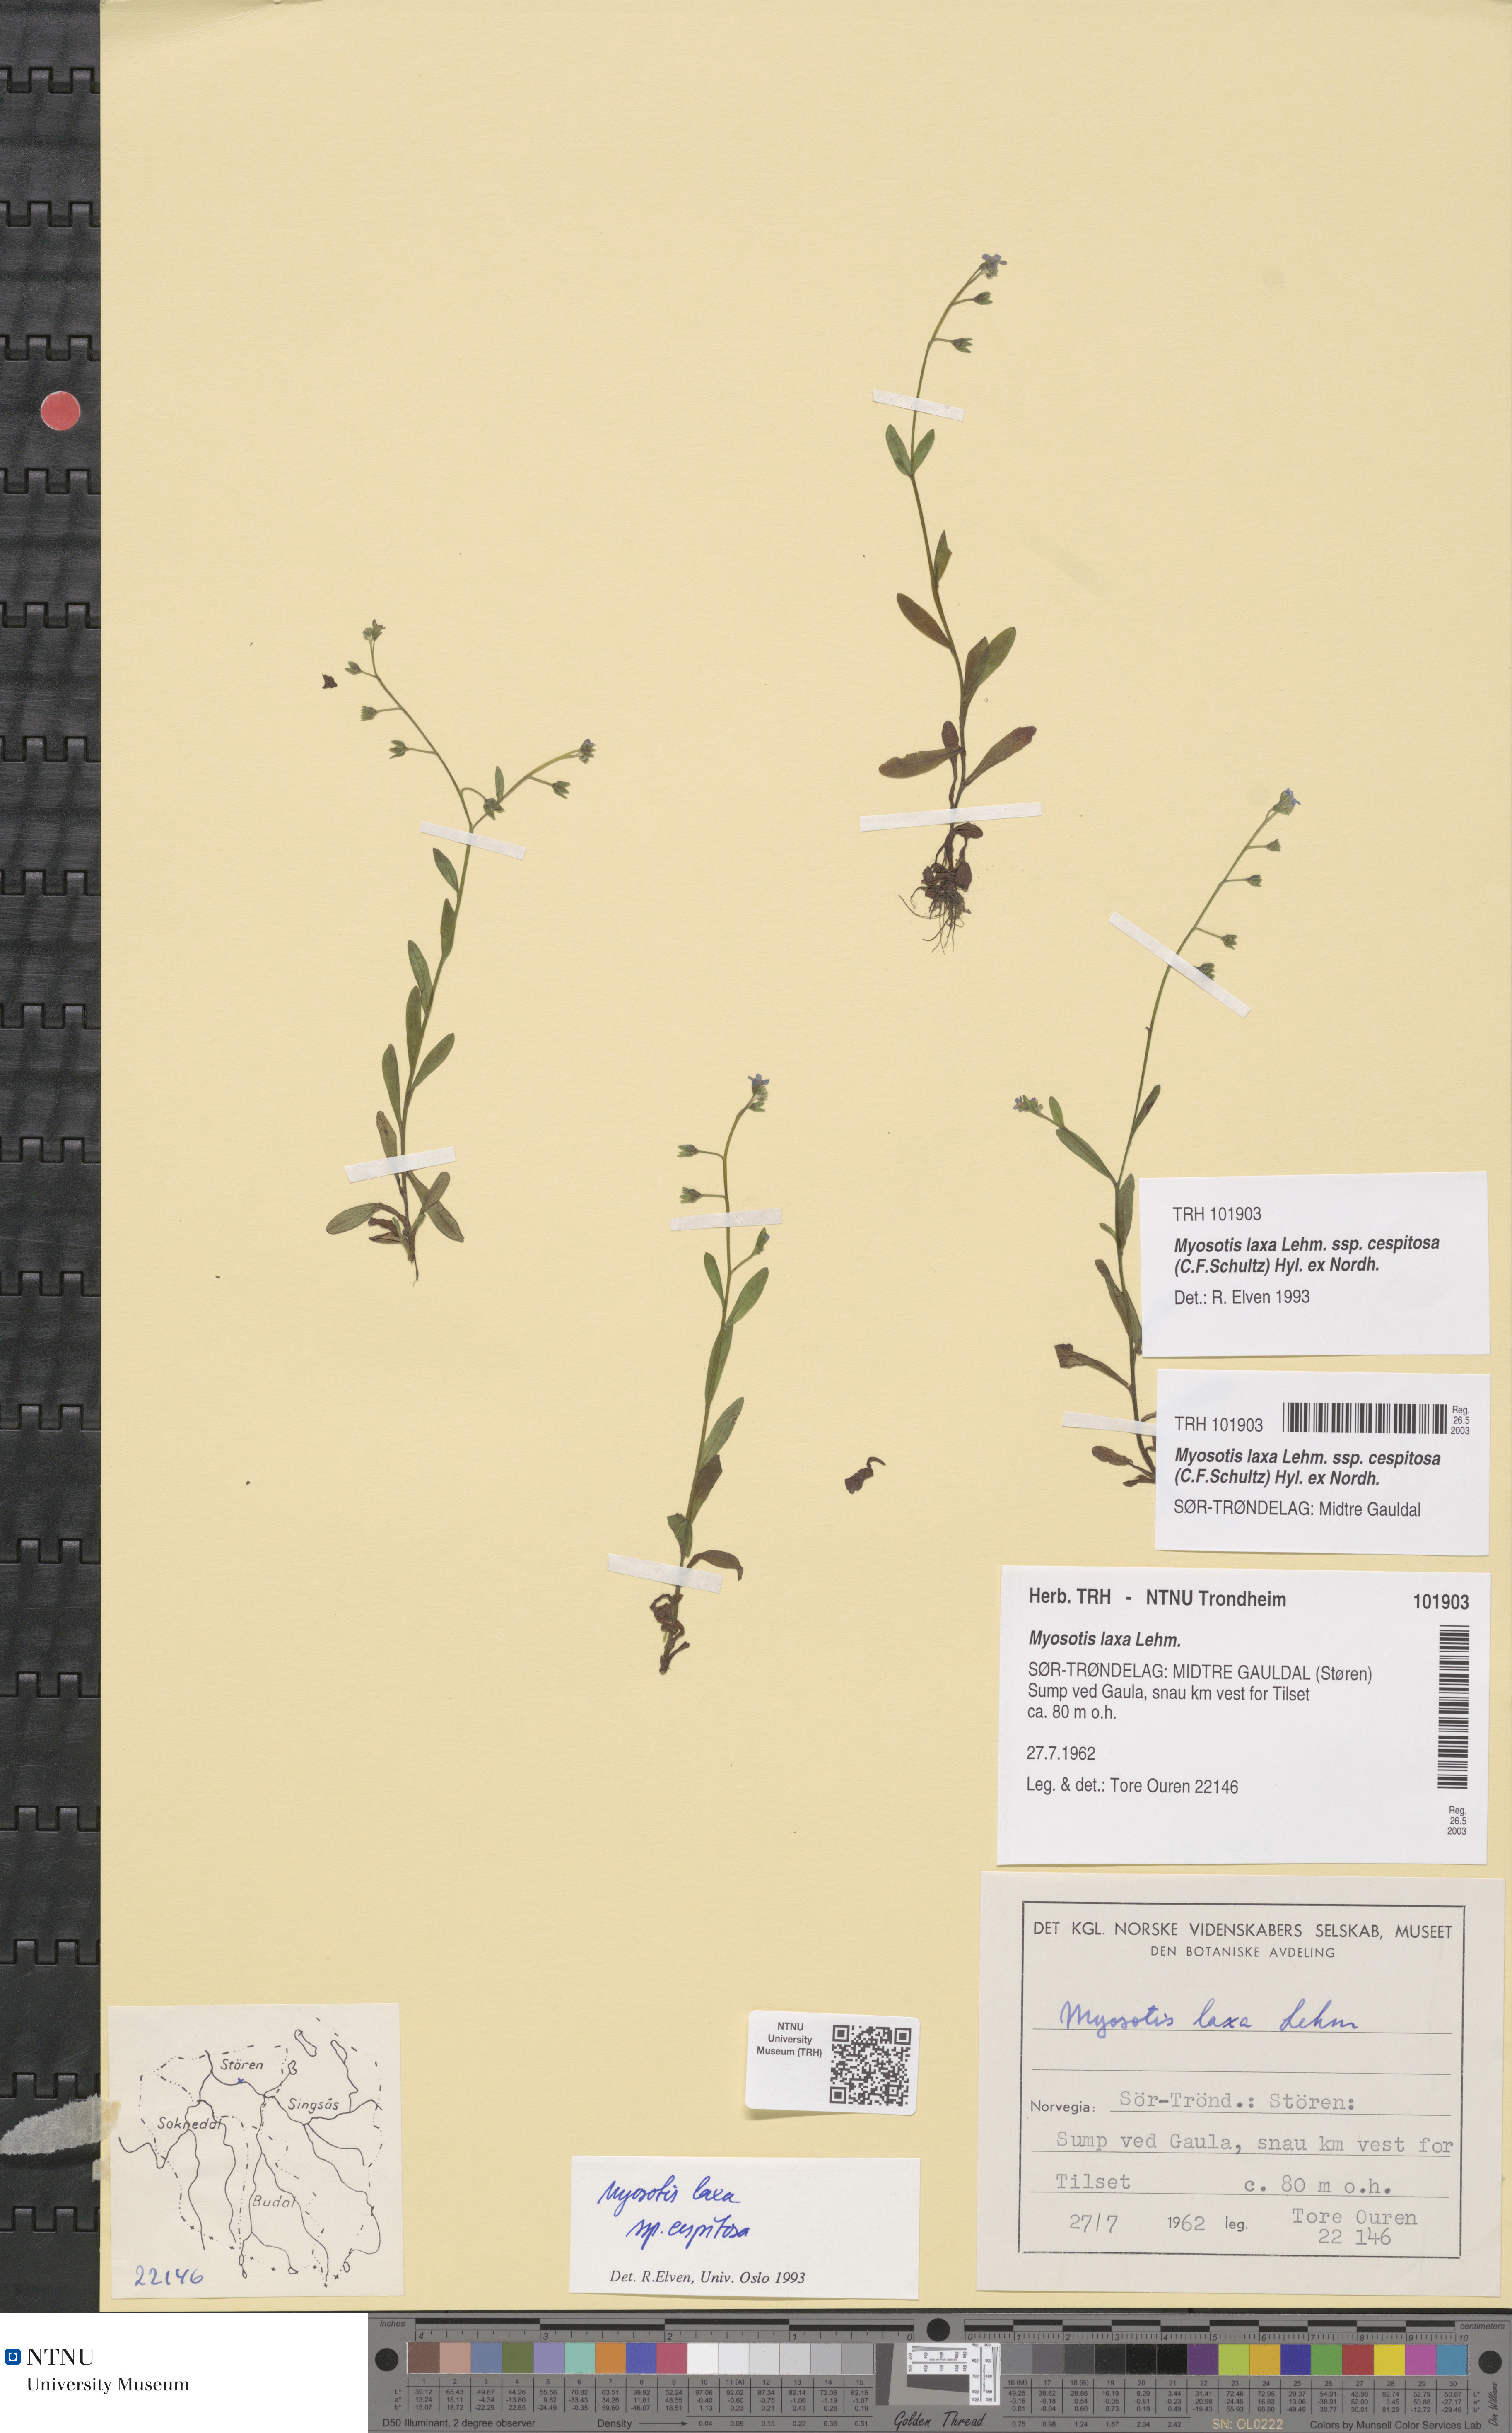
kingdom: Plantae
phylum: Tracheophyta
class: Magnoliopsida
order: Boraginales
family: Boraginaceae
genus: Myosotis
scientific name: Myosotis laxa
